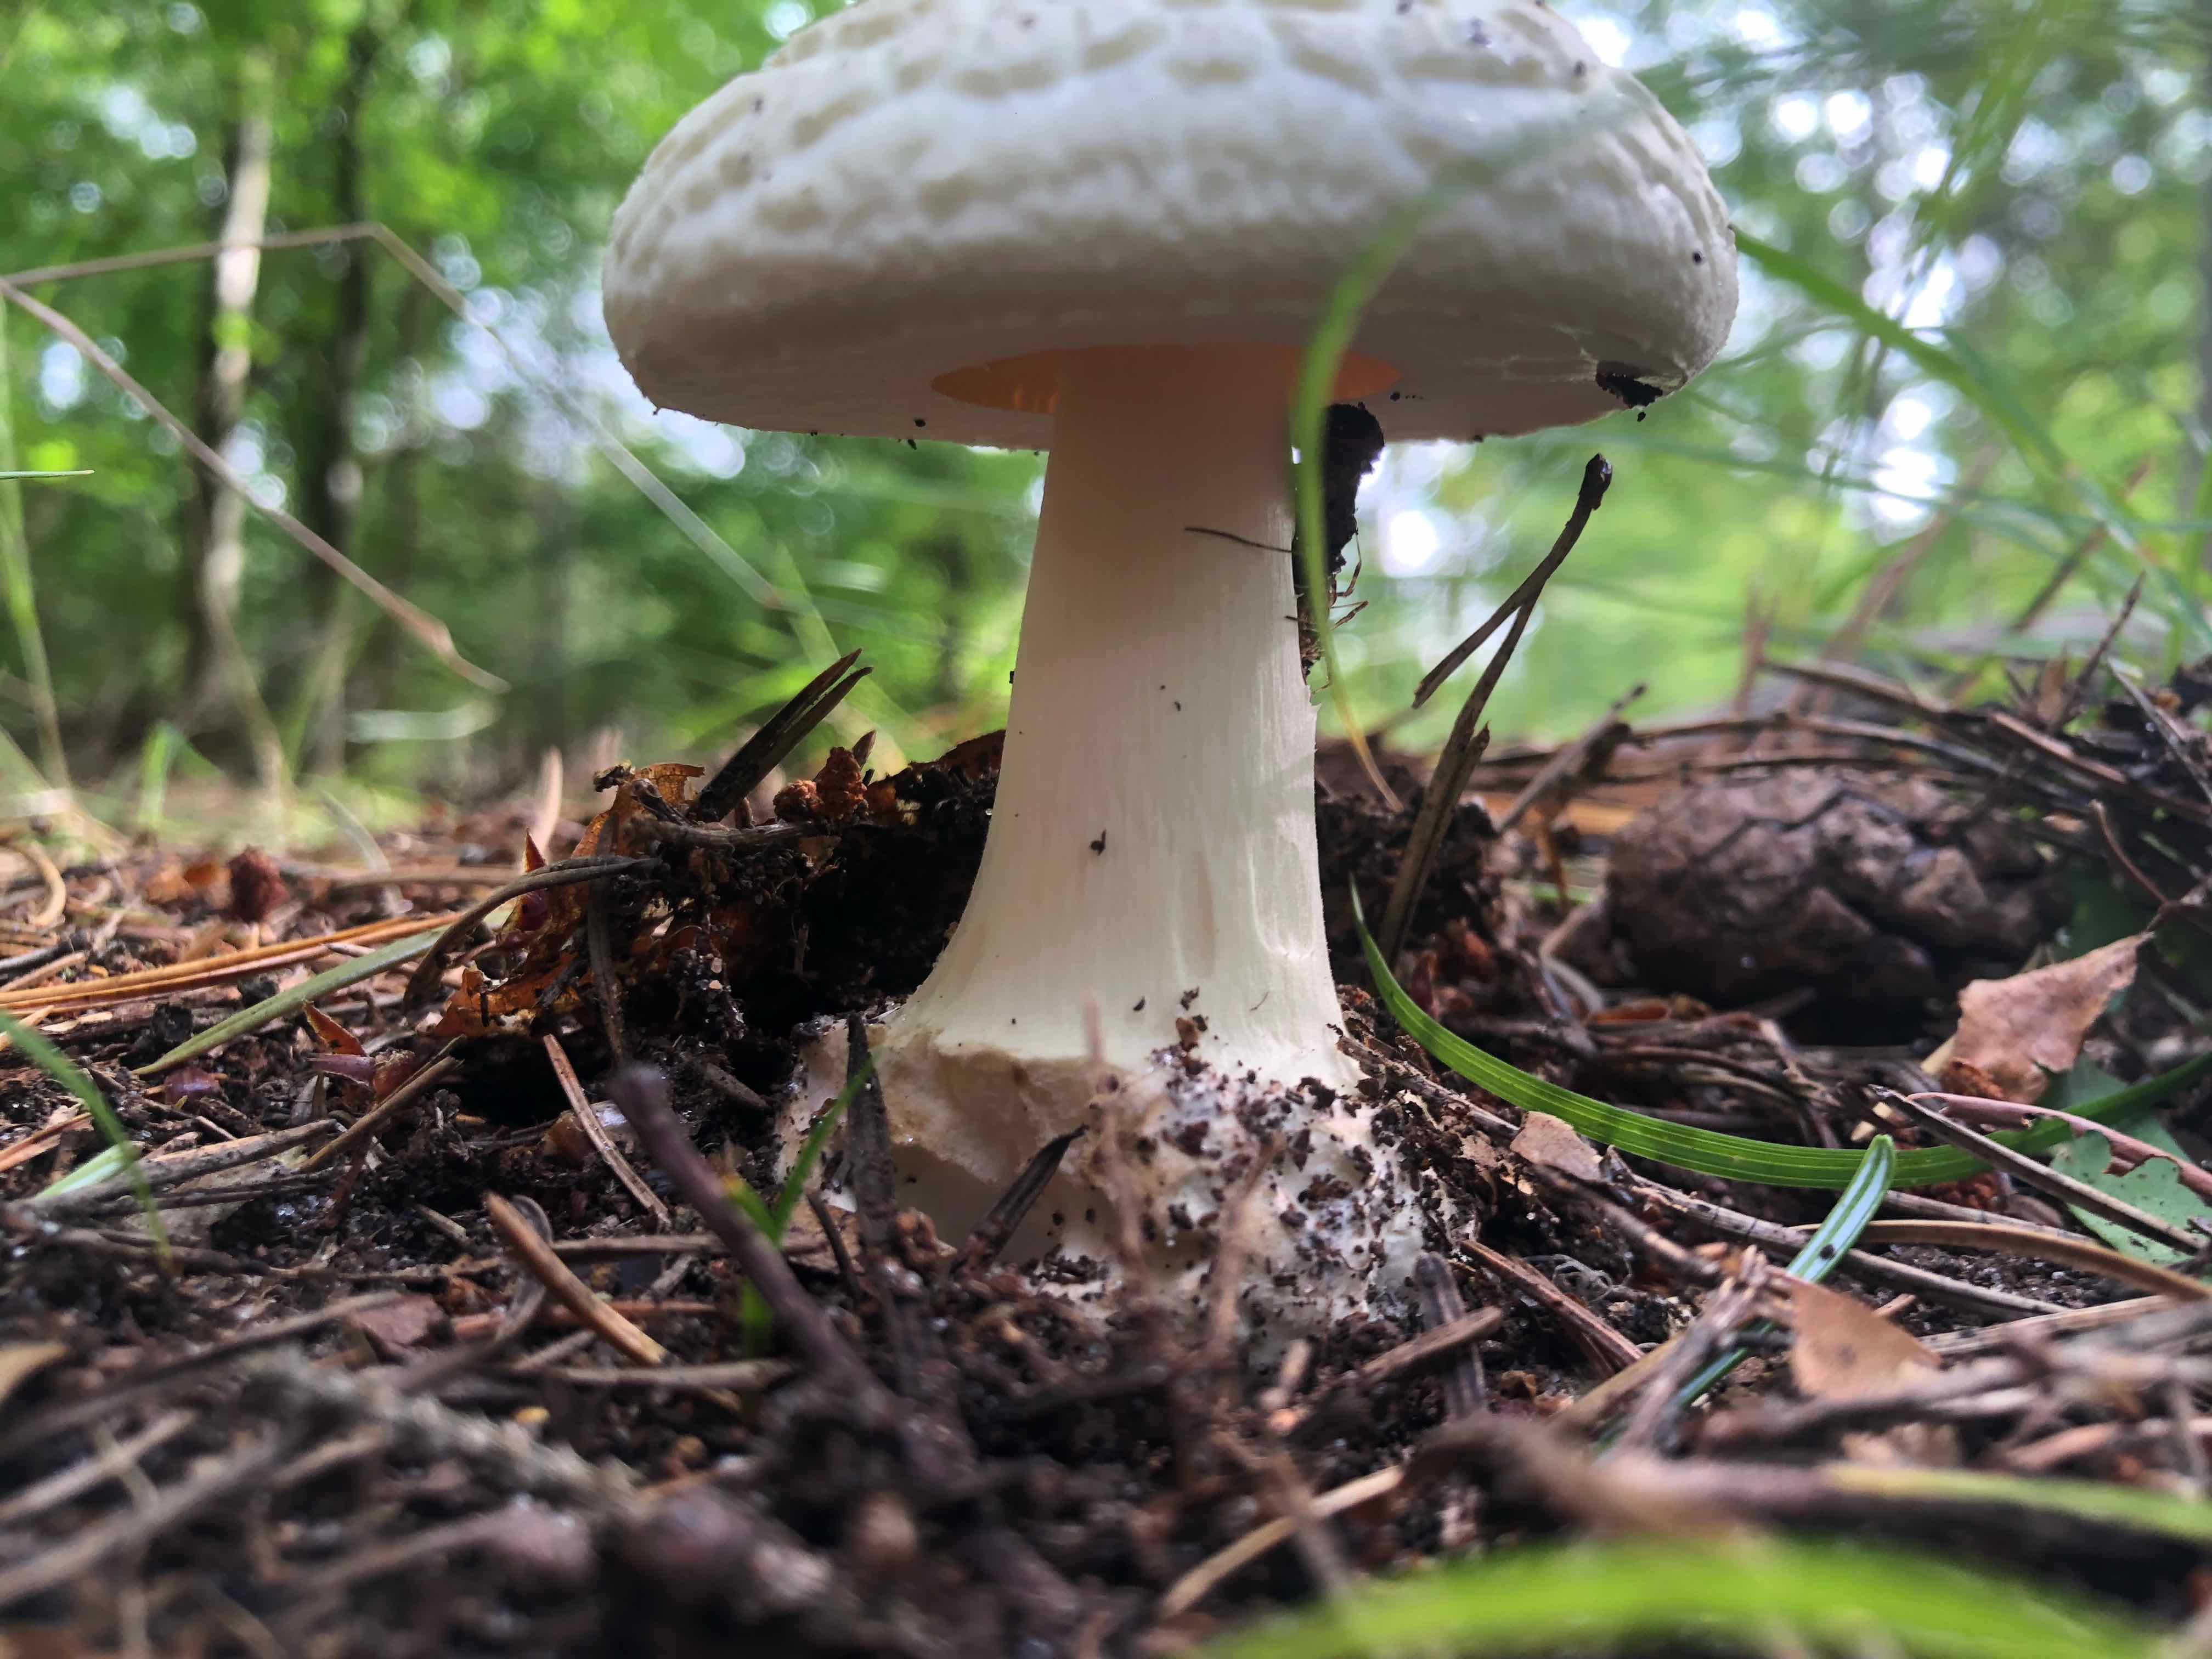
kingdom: Fungi
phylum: Basidiomycota
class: Agaricomycetes
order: Agaricales
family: Amanitaceae
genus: Amanita
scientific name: Amanita citrina
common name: kugleknoldet fluesvamp
